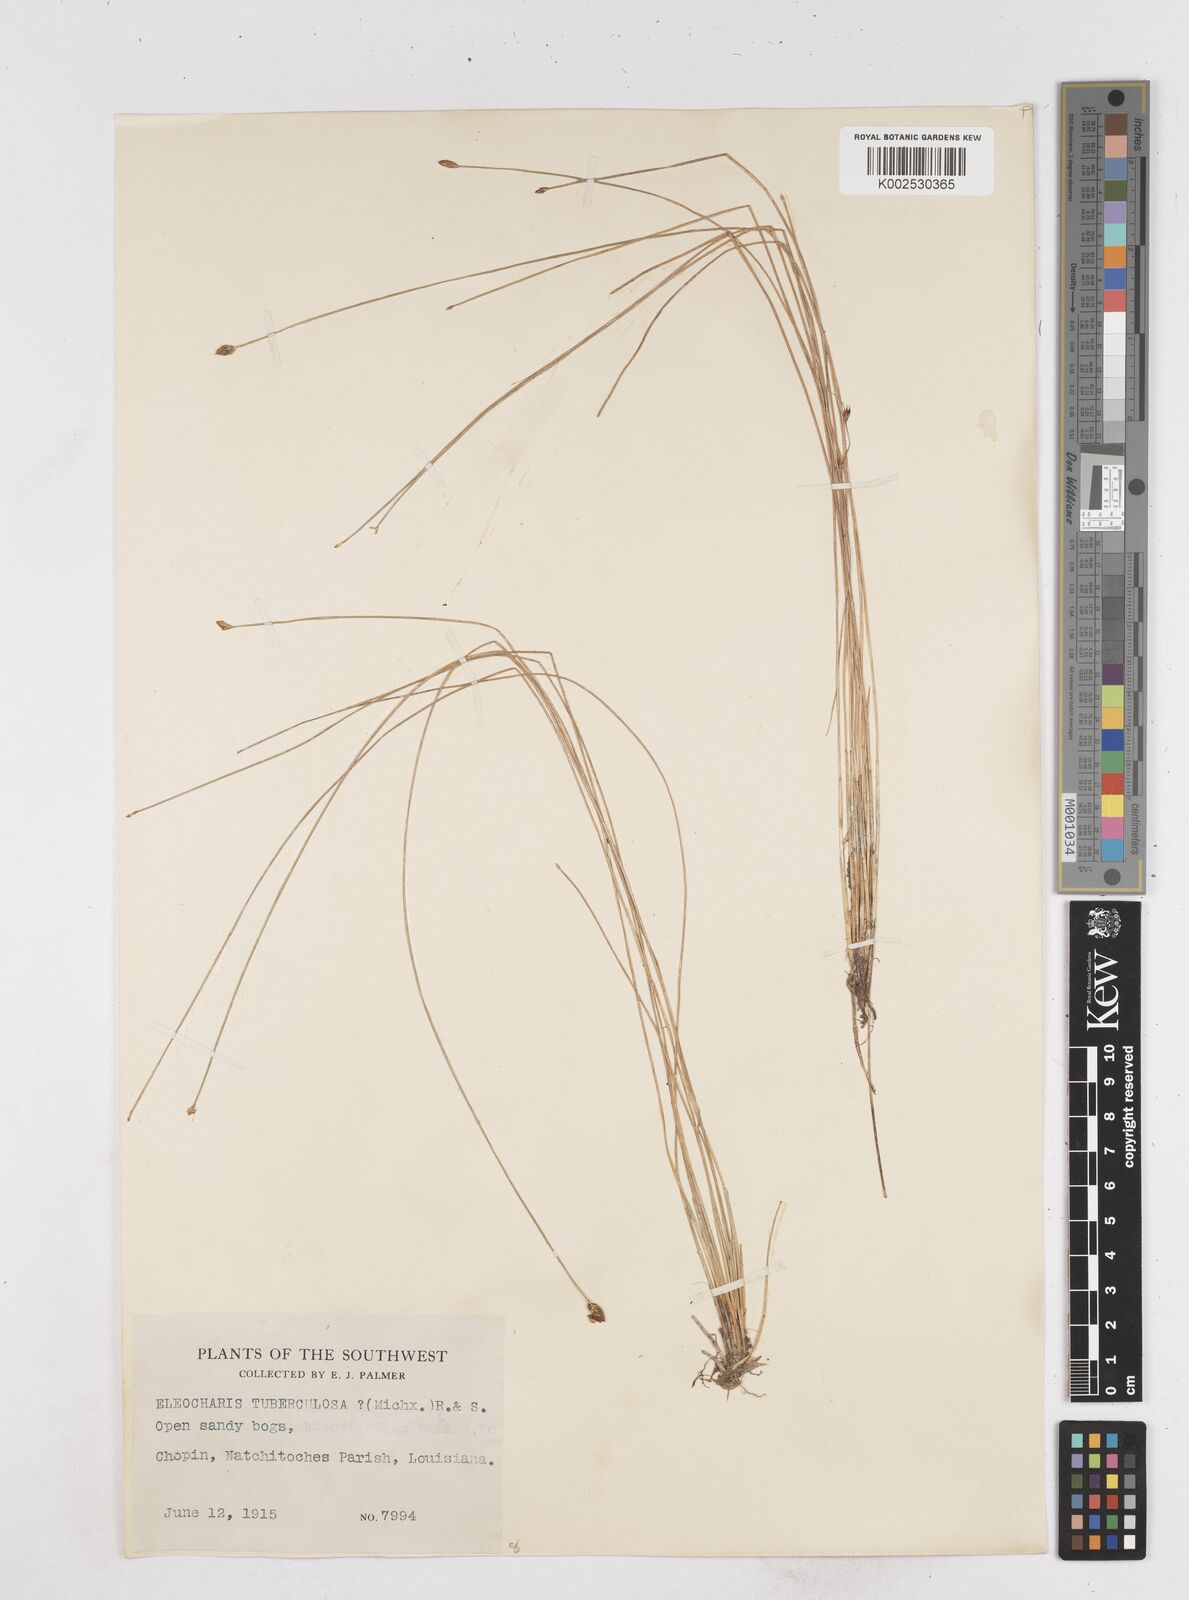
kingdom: Plantae
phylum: Tracheophyta
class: Liliopsida
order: Poales
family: Cyperaceae
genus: Eleocharis
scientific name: Eleocharis tuberculosa
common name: Cone-cup spikerush
